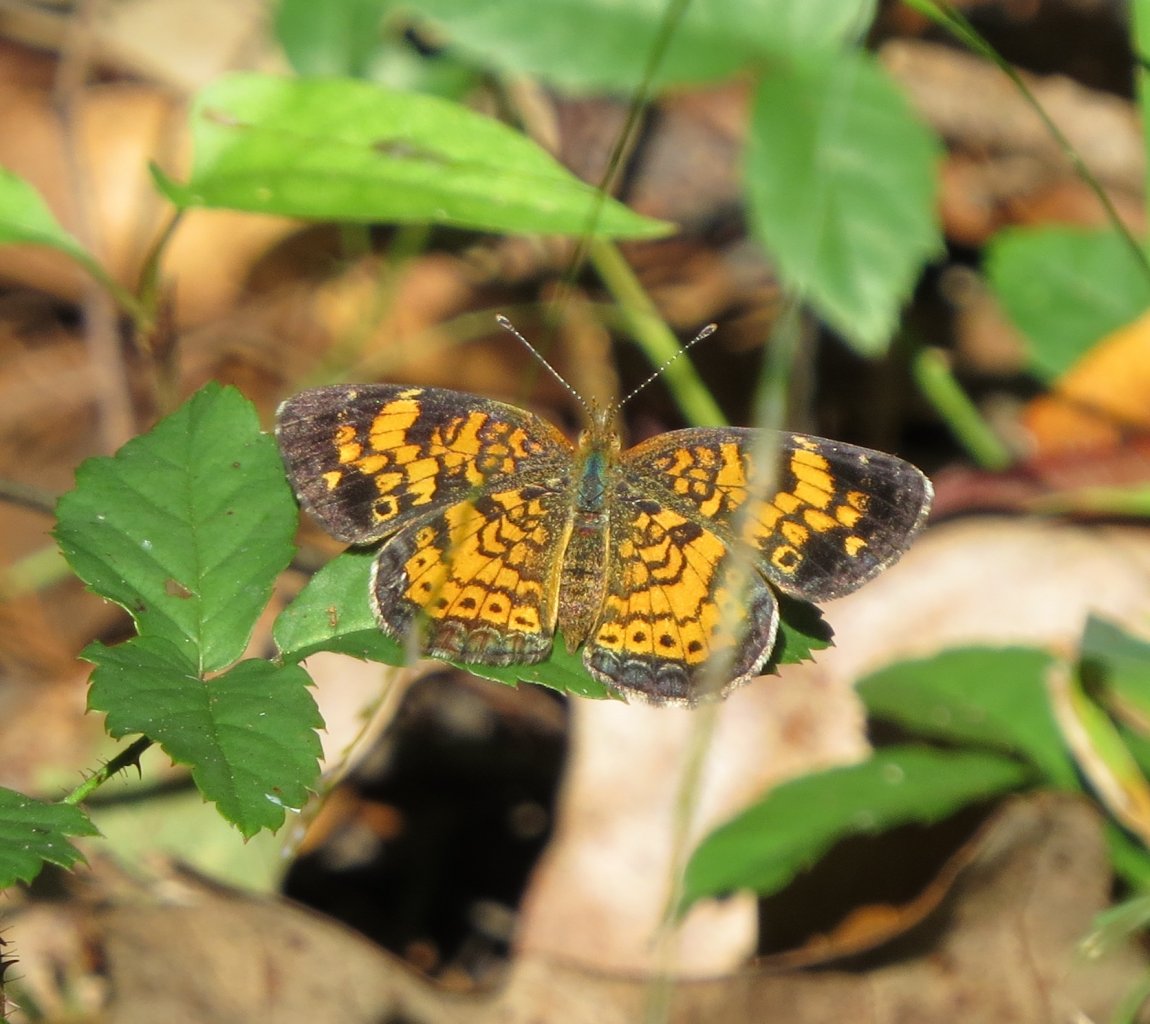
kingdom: Animalia
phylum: Arthropoda
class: Insecta
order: Lepidoptera
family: Nymphalidae
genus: Phyciodes
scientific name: Phyciodes tharos
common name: Pearl Crescent
